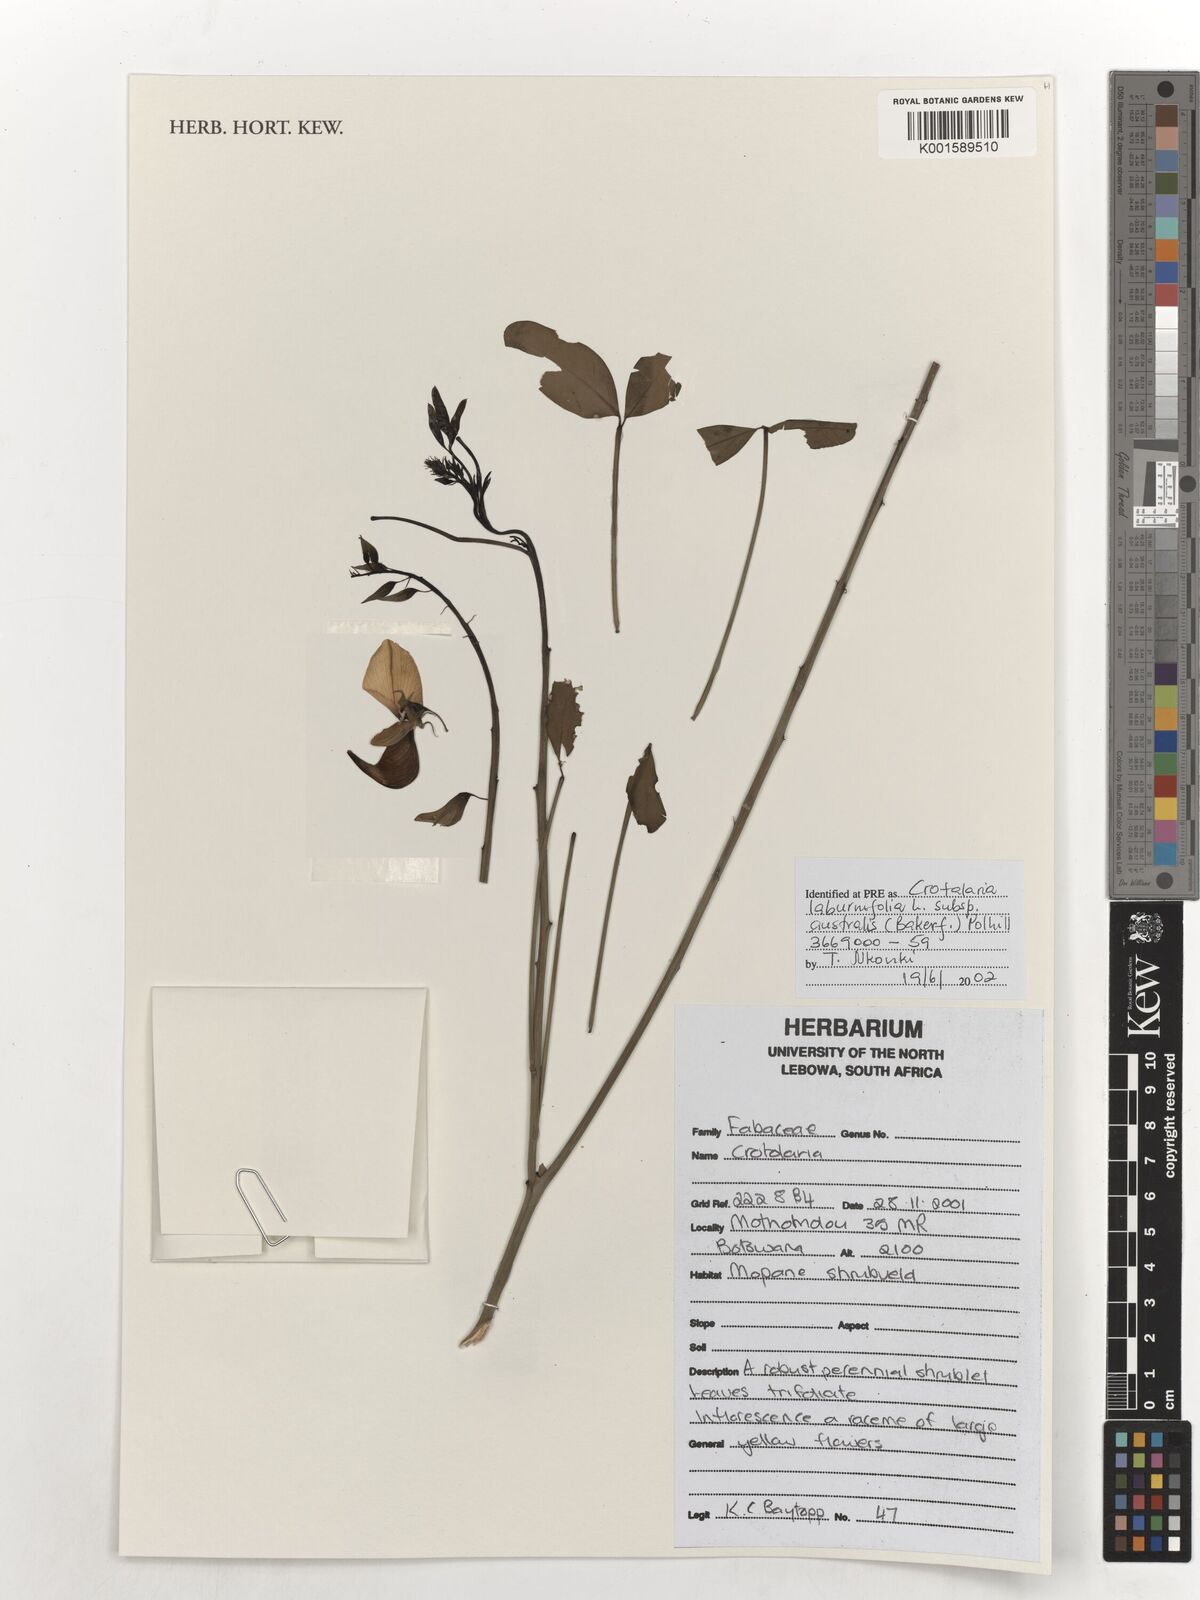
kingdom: Plantae
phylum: Tracheophyta
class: Magnoliopsida
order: Fabales
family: Fabaceae
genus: Crotalaria
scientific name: Crotalaria laburnifolia
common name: Birdflower
